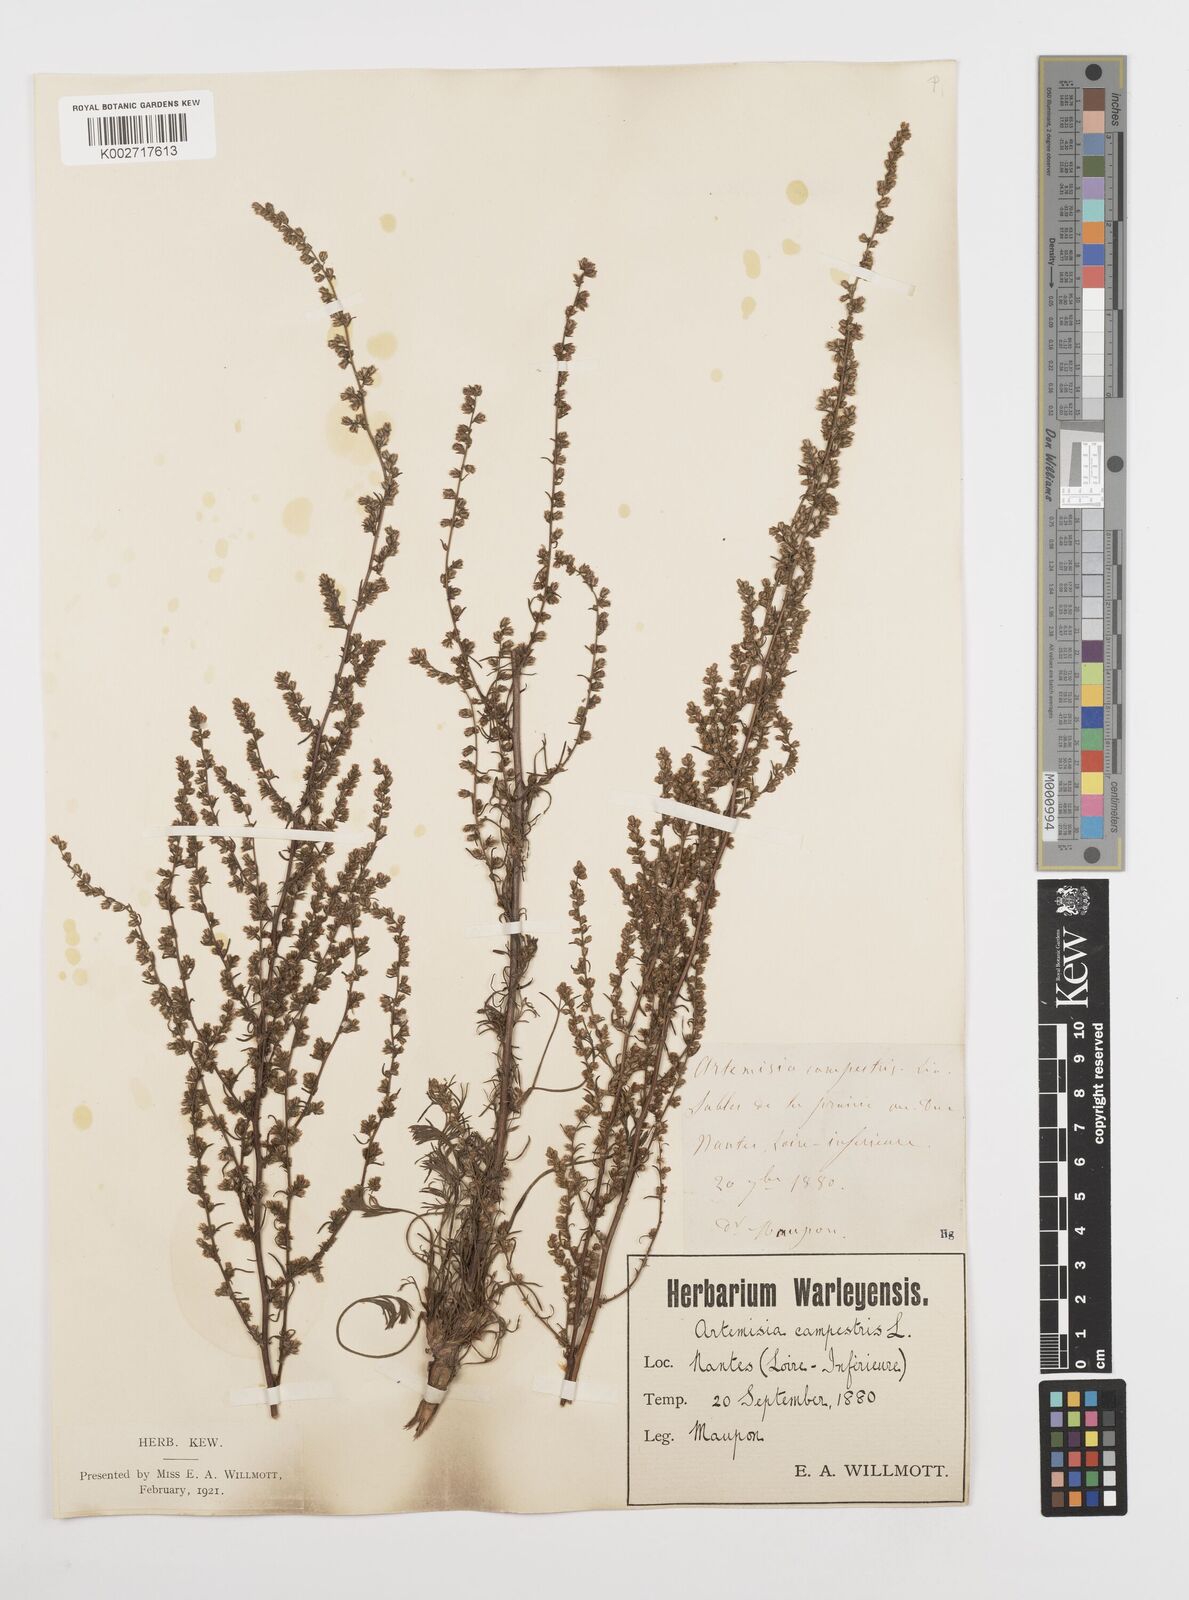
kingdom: Plantae
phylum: Tracheophyta
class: Magnoliopsida
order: Asterales
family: Asteraceae
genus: Artemisia
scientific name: Artemisia campestris
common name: Field wormwood
